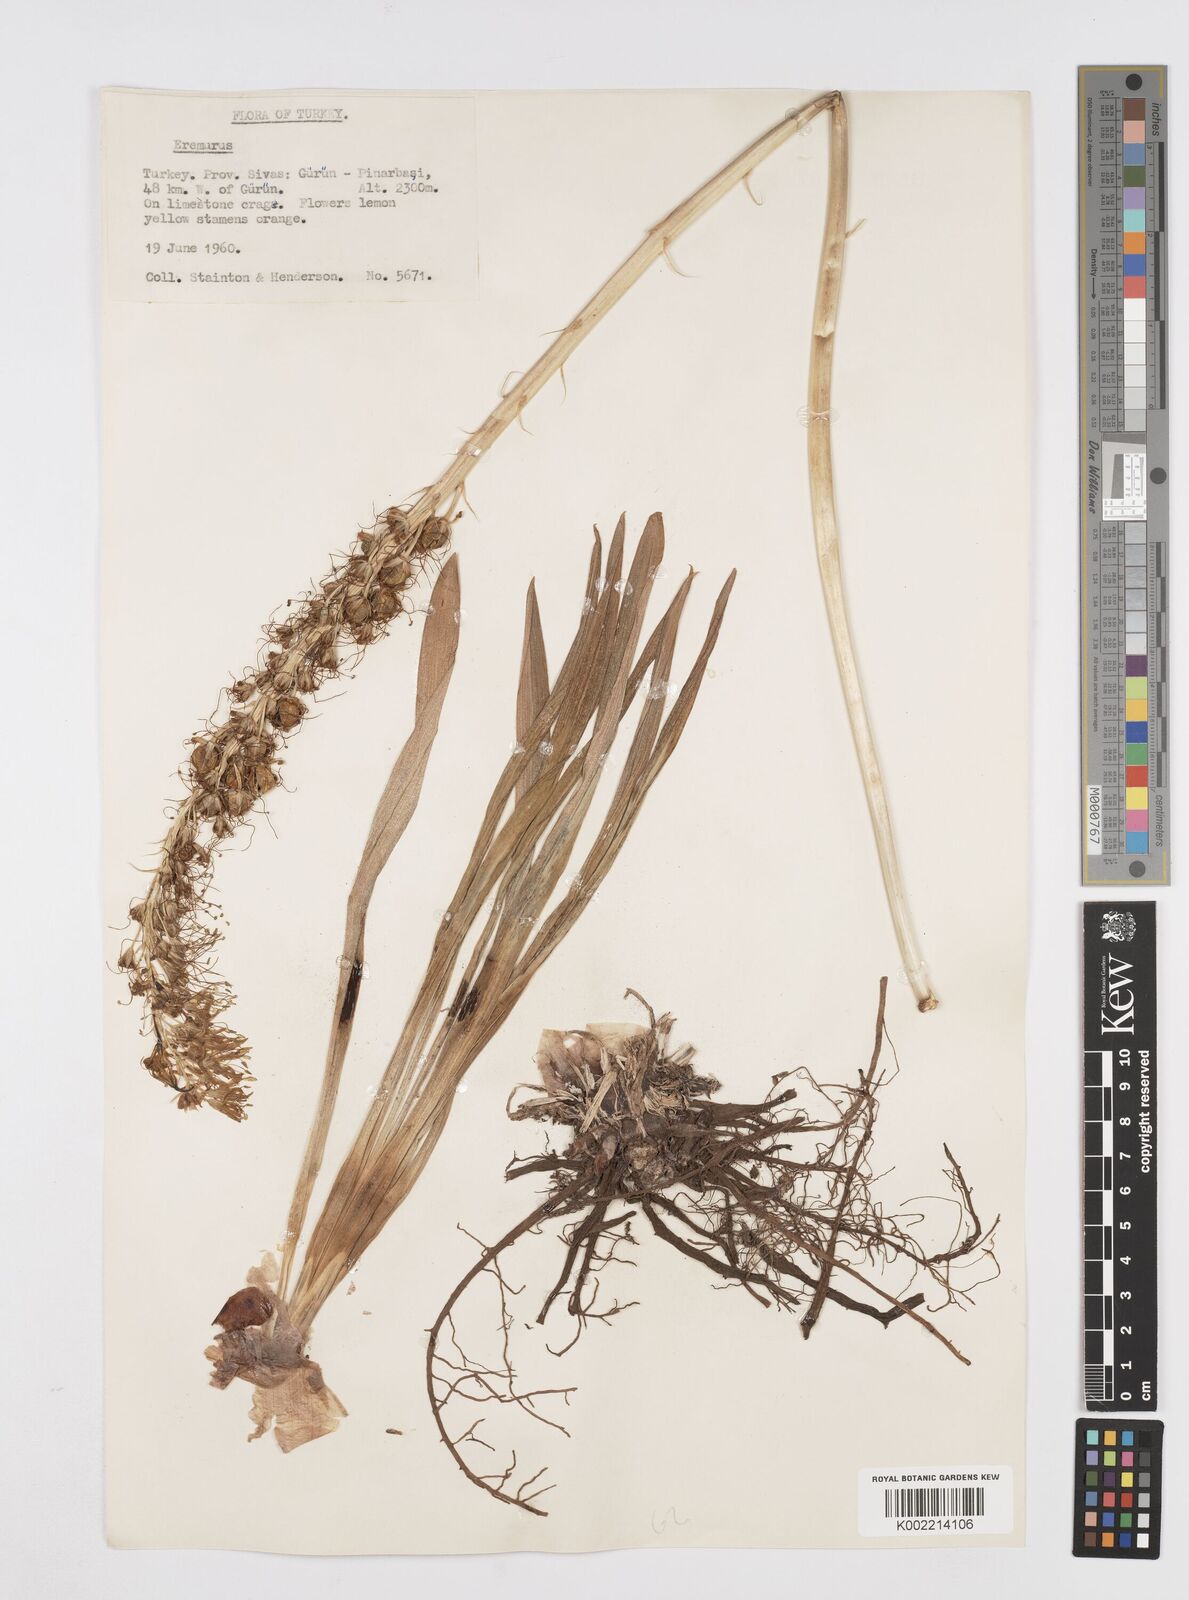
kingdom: Plantae
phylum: Tracheophyta
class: Liliopsida
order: Asparagales
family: Asphodelaceae
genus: Eremurus
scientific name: Eremurus spectabilis
